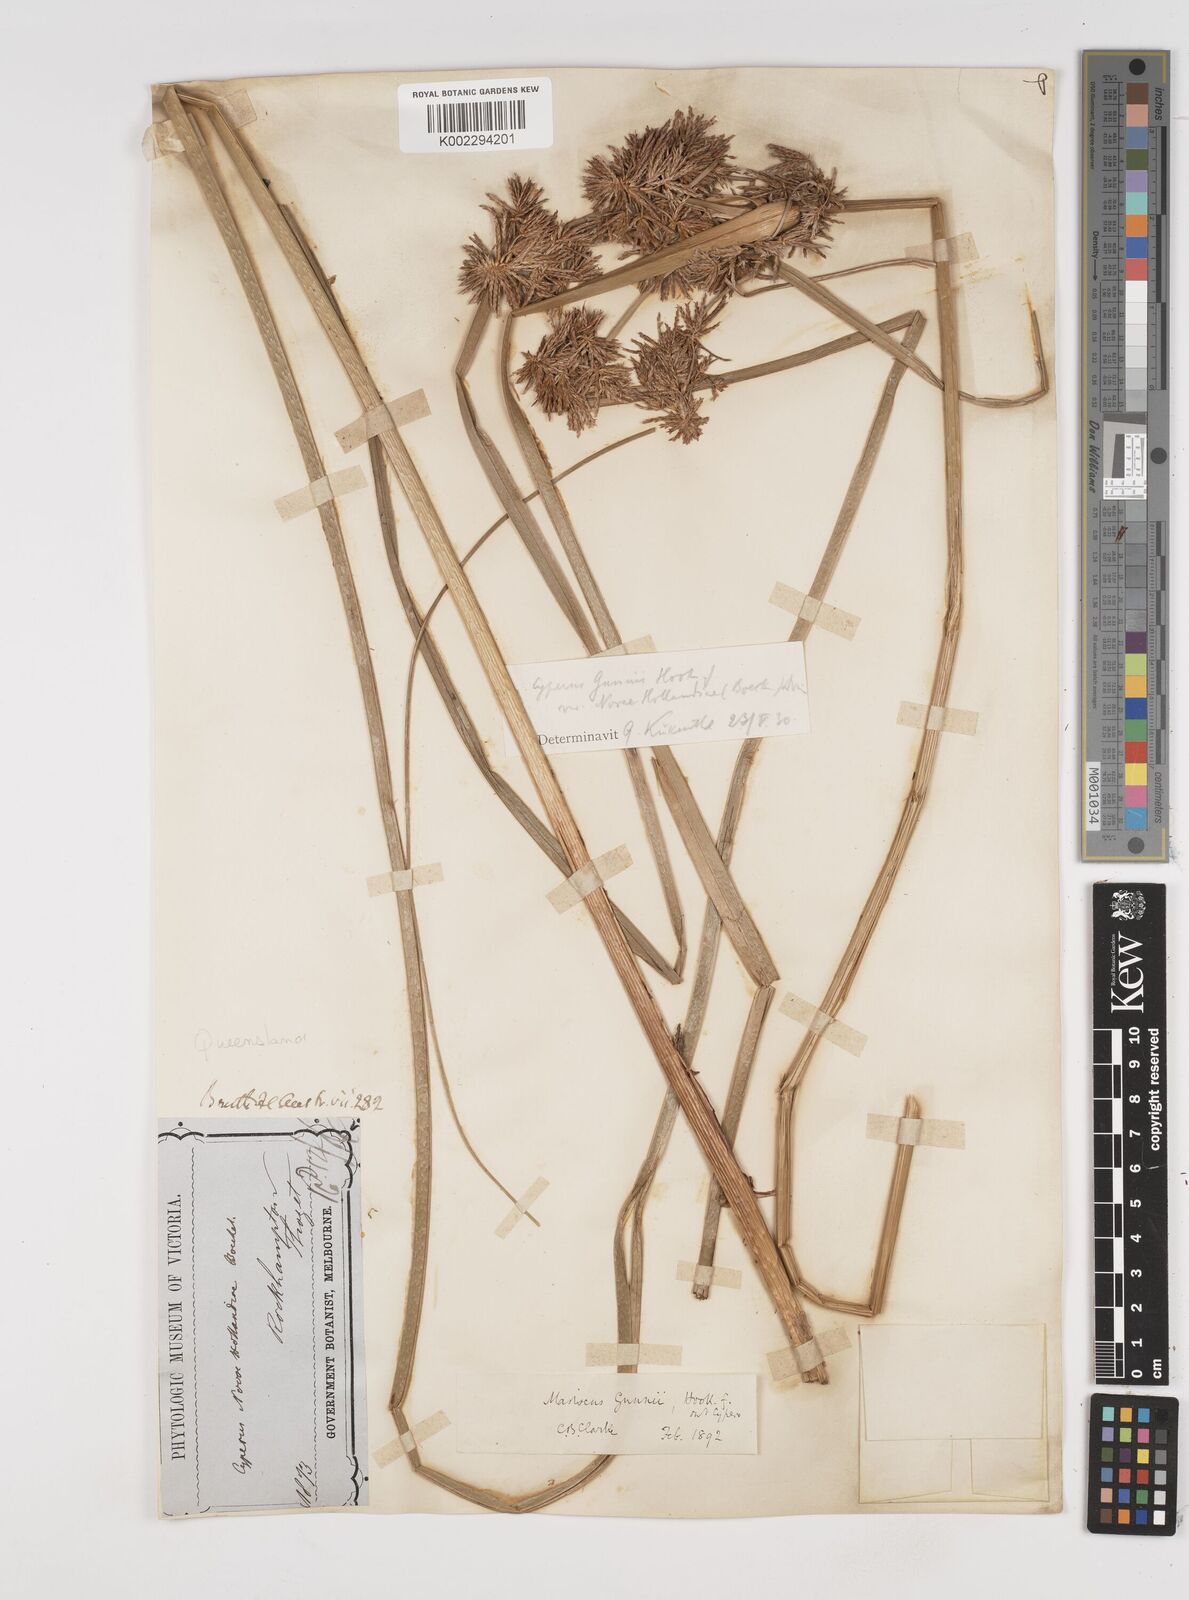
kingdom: Plantae
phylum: Tracheophyta
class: Liliopsida
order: Poales
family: Cyperaceae
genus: Cyperus
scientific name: Cyperus gunnii
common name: Flecked flat-sedge
